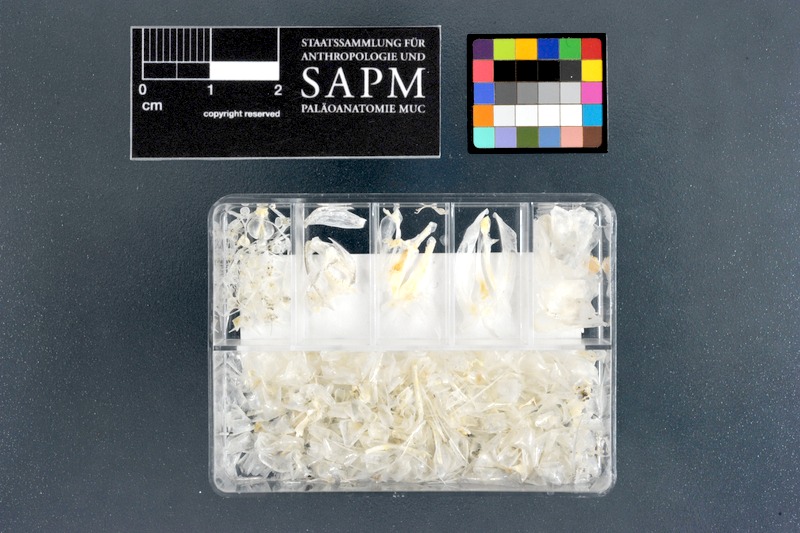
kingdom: Animalia
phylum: Chordata
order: Atheriniformes
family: Atherinidae
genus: Atherinomorus
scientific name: Atherinomorus lacunosus
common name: Hardyhead silverside
